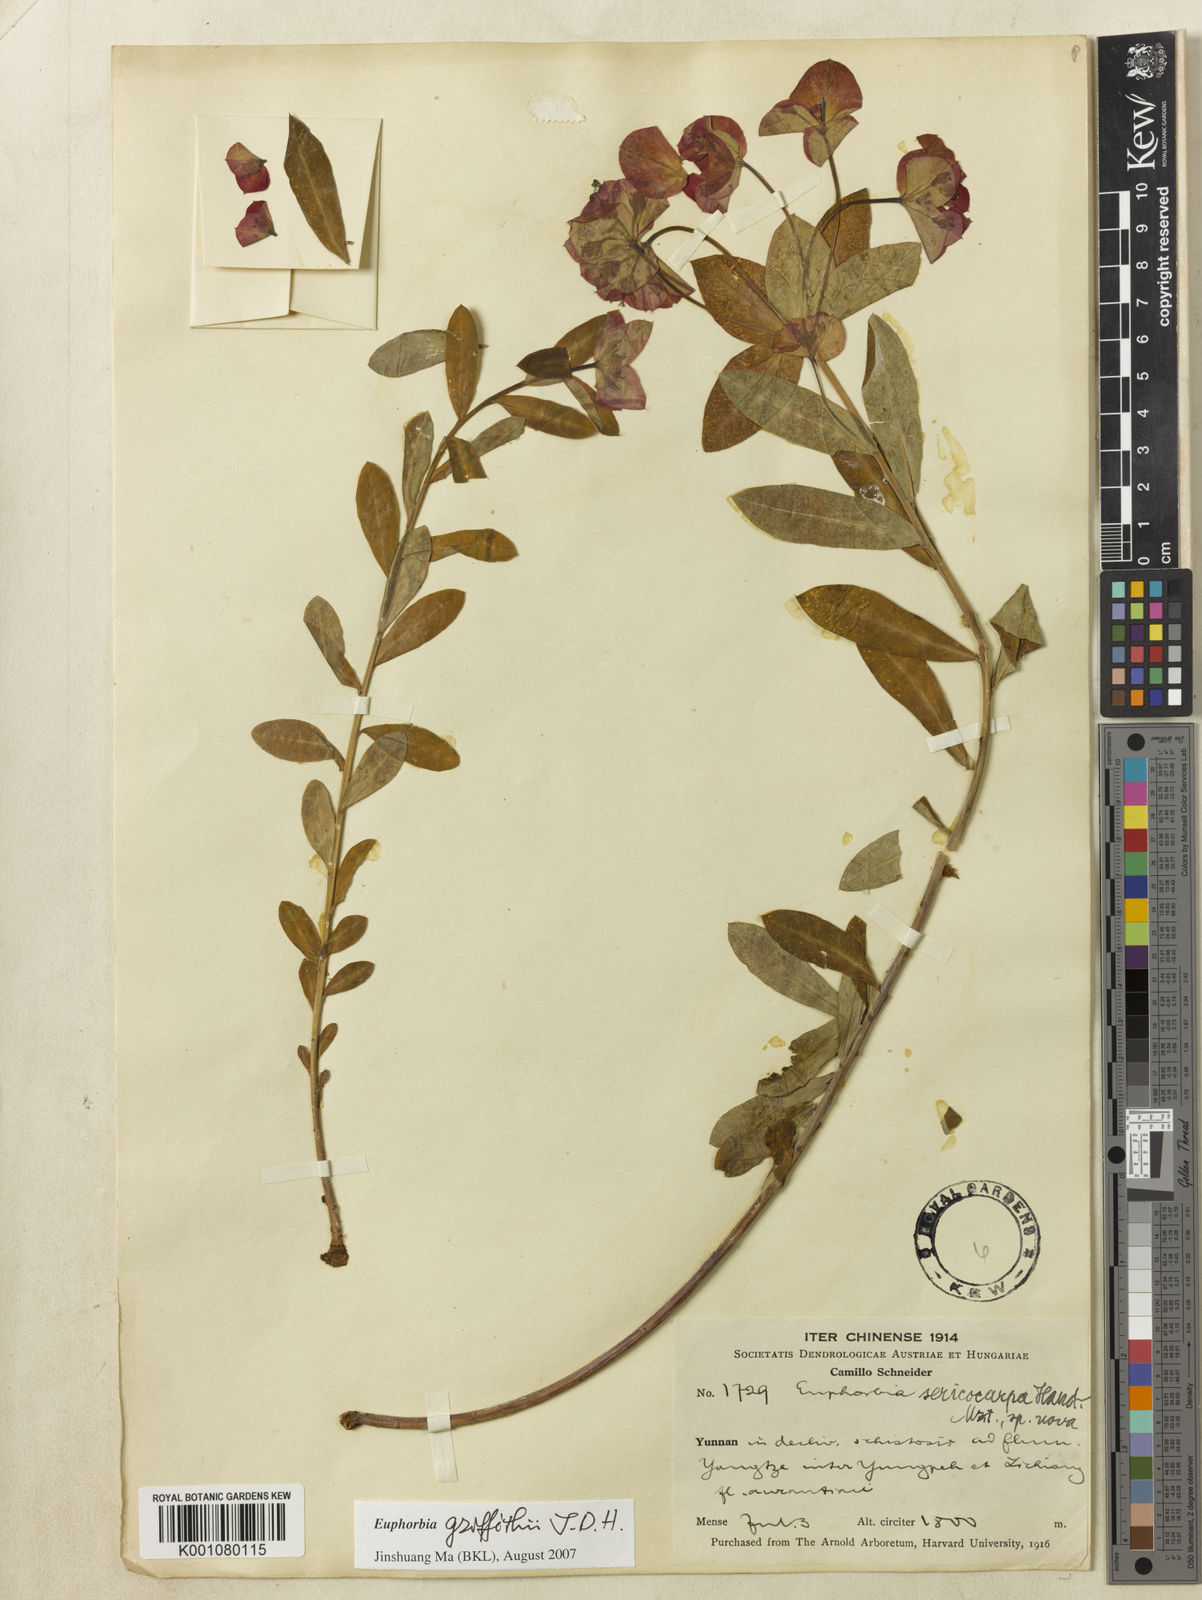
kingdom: Plantae
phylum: Tracheophyta
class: Magnoliopsida
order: Malpighiales
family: Euphorbiaceae
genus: Euphorbia
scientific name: Euphorbia griffithii
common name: Griffith's spurge
